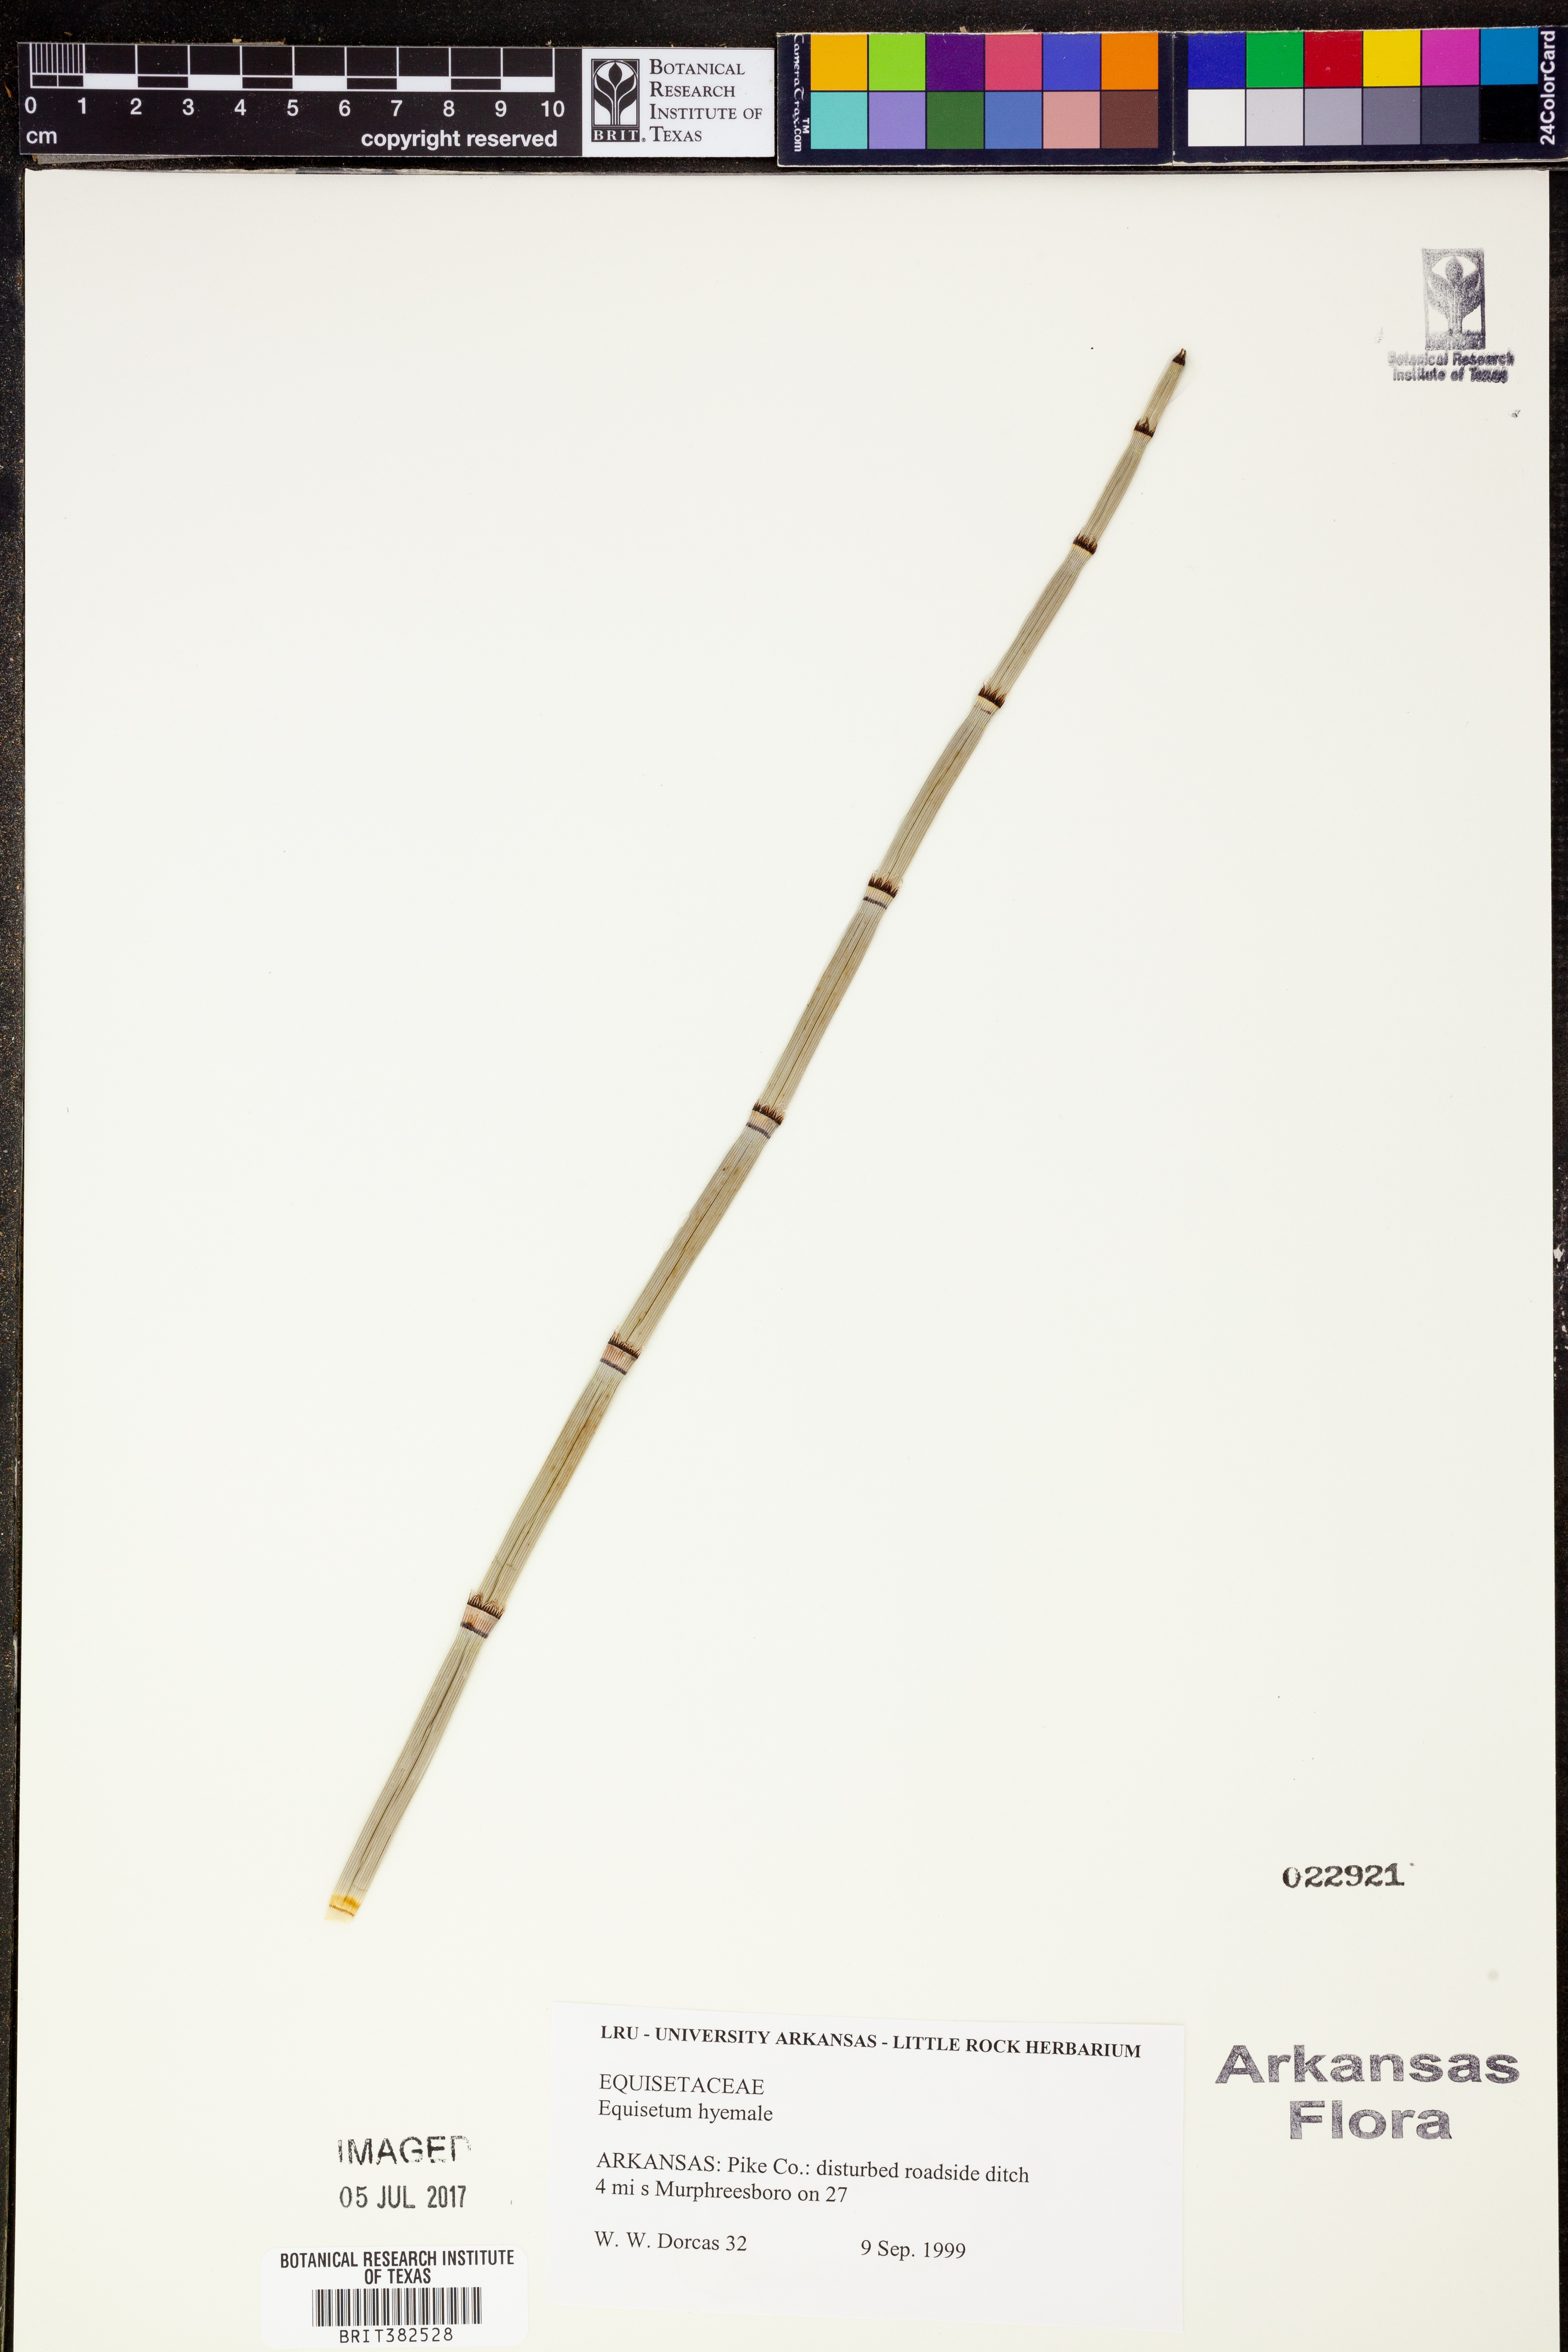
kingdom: Plantae
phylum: Tracheophyta
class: Polypodiopsida
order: Equisetales
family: Equisetaceae
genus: Equisetum
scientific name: Equisetum hyemale
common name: Rough horsetail
